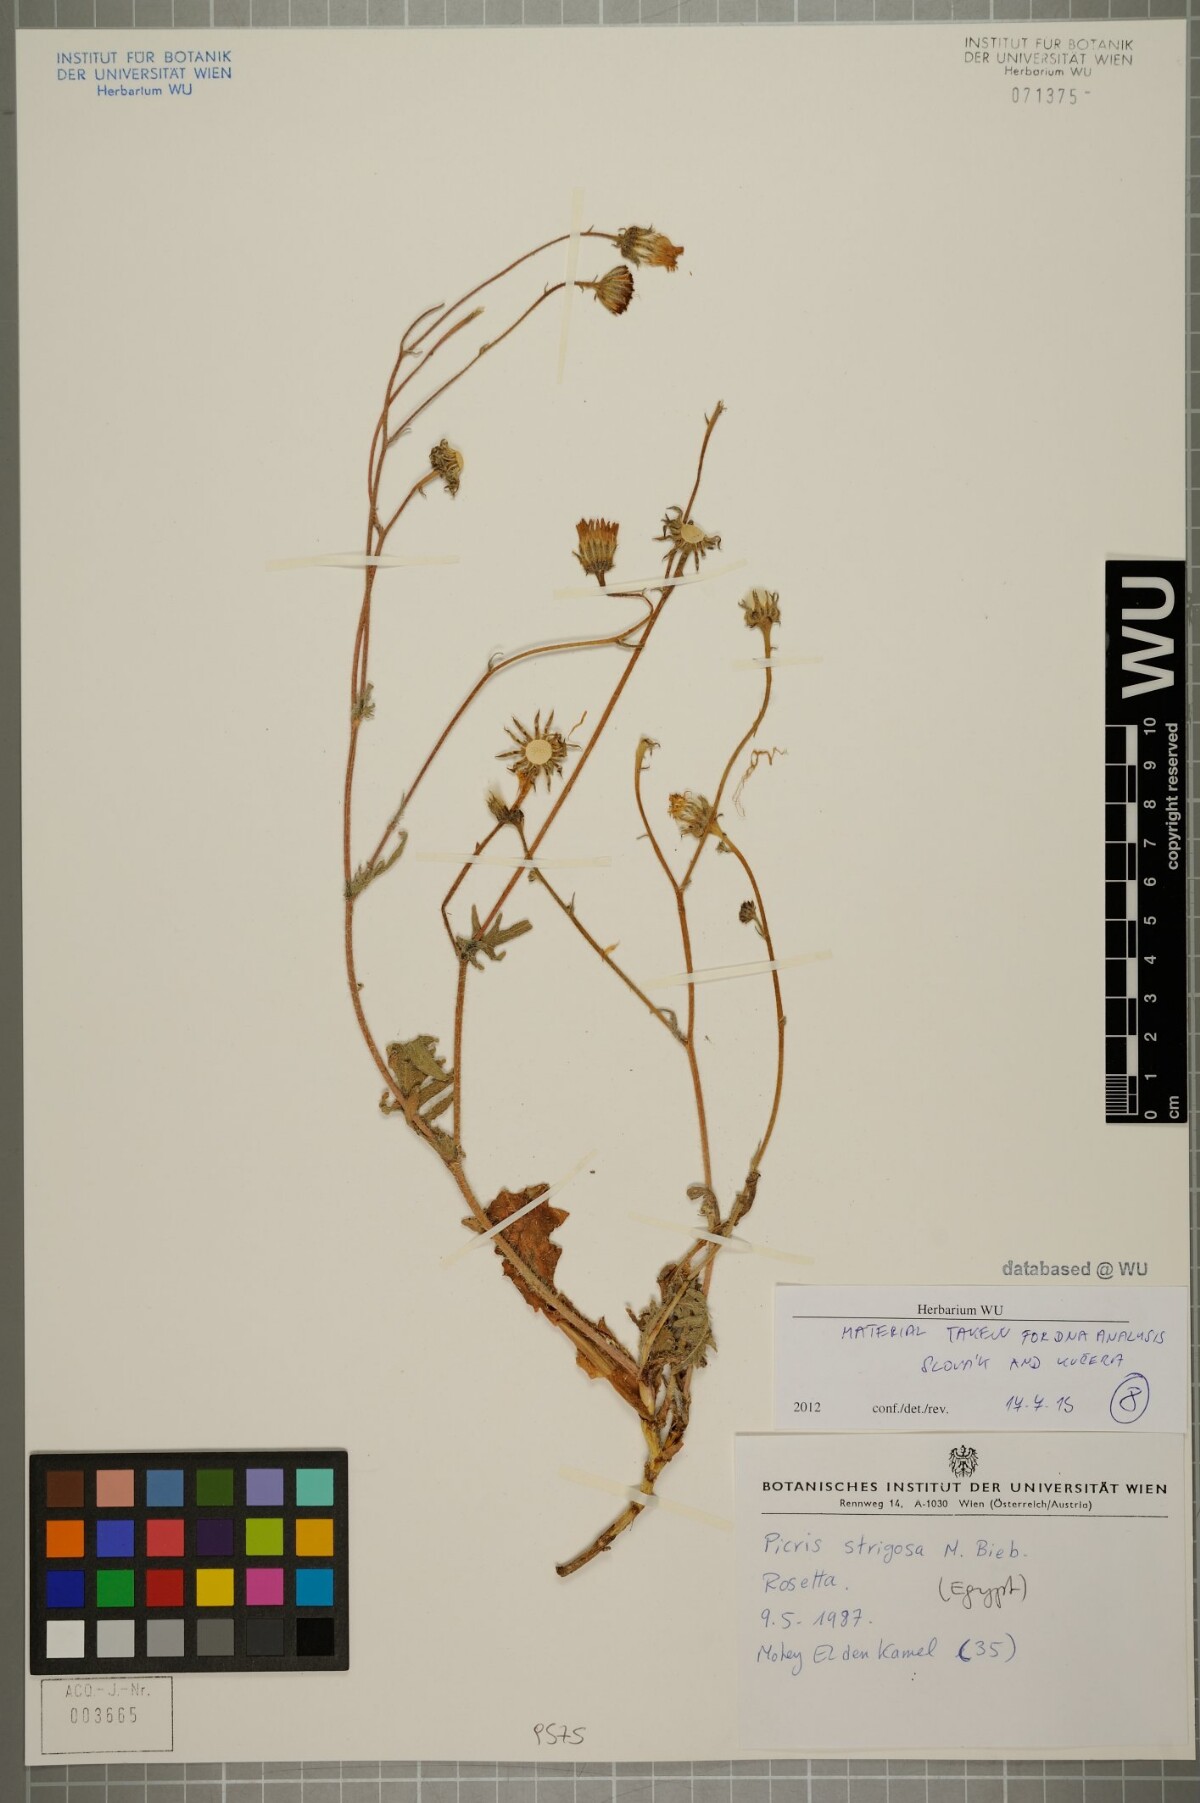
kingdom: Plantae
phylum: Tracheophyta
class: Magnoliopsida
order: Asterales
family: Asteraceae
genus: Picris
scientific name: Picris strigosa
